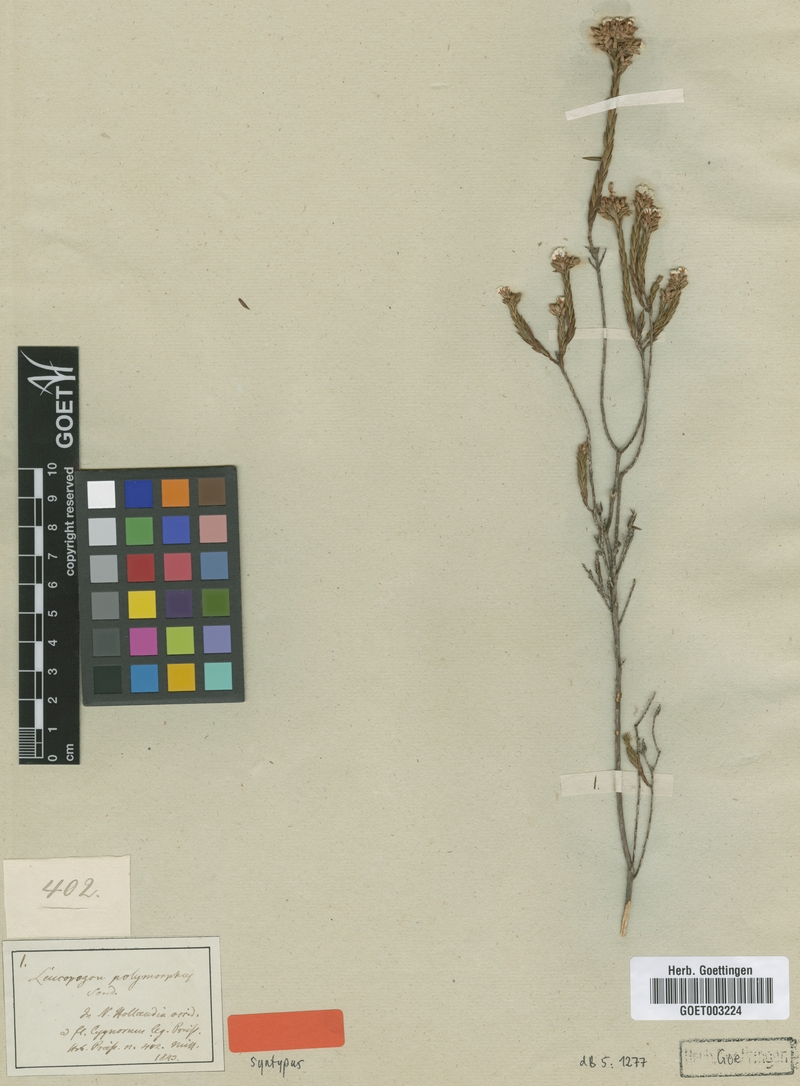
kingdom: Plantae
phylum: Tracheophyta
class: Magnoliopsida
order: Ericales
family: Ericaceae
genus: Leucopogon
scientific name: Leucopogon polymorphus
